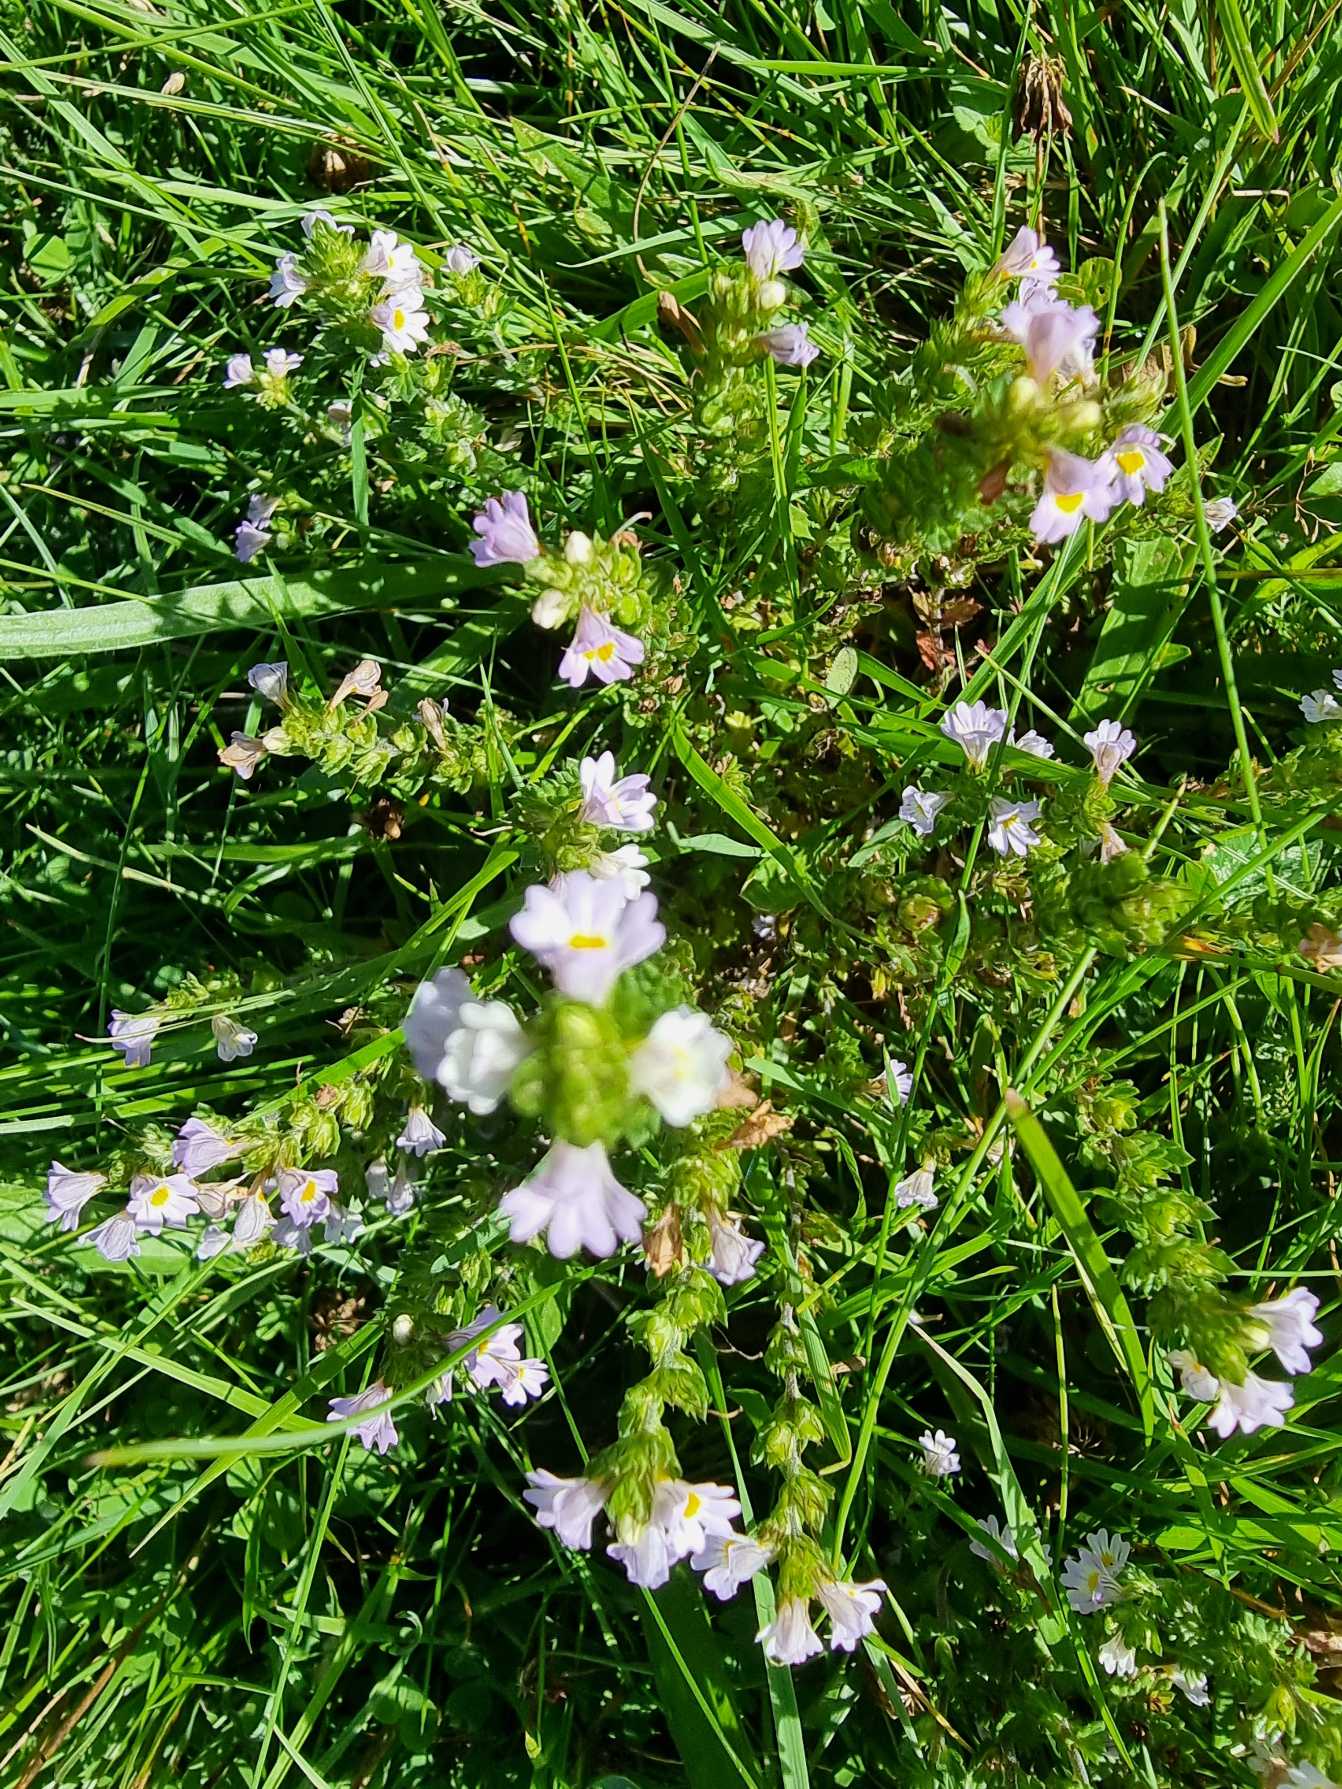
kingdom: Plantae
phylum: Tracheophyta
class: Magnoliopsida
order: Lamiales
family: Orobanchaceae
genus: Euphrasia
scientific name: Euphrasia nemorosa
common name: Kort øjentrøst
